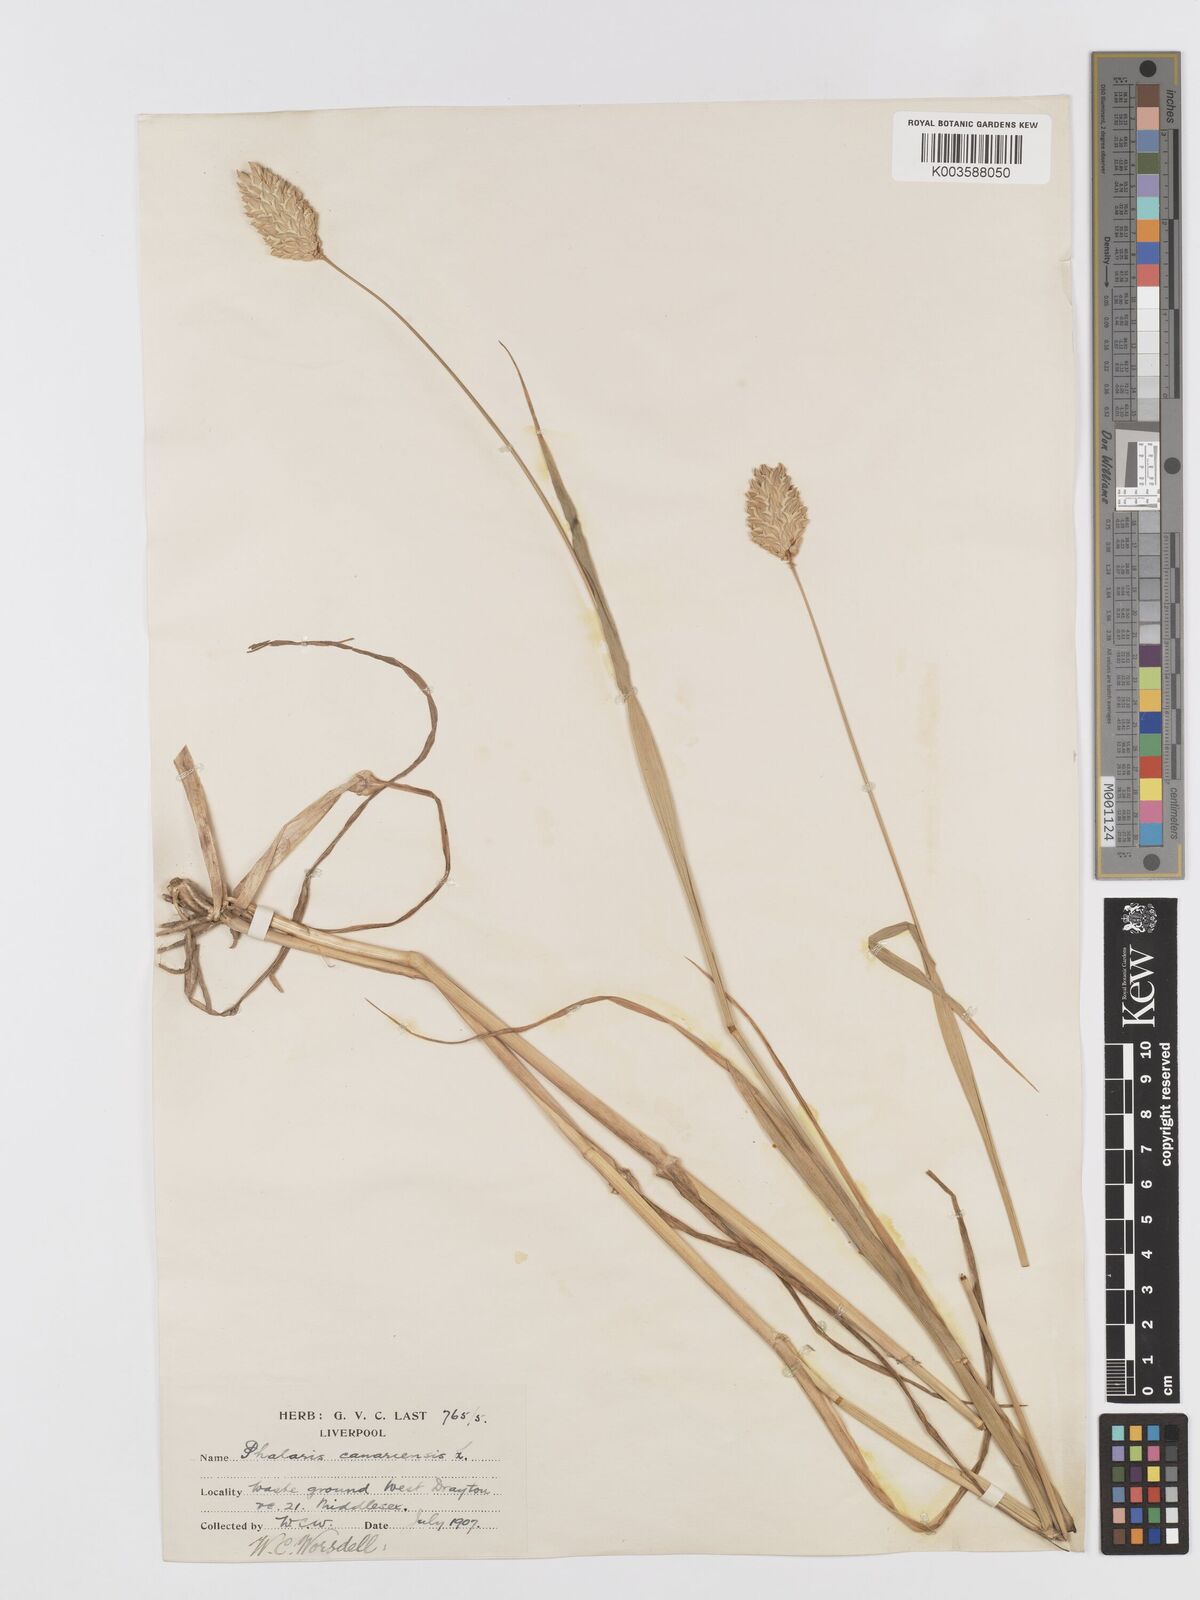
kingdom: Plantae
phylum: Tracheophyta
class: Liliopsida
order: Poales
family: Poaceae
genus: Phalaris
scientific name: Phalaris canariensis
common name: Annual canarygrass
